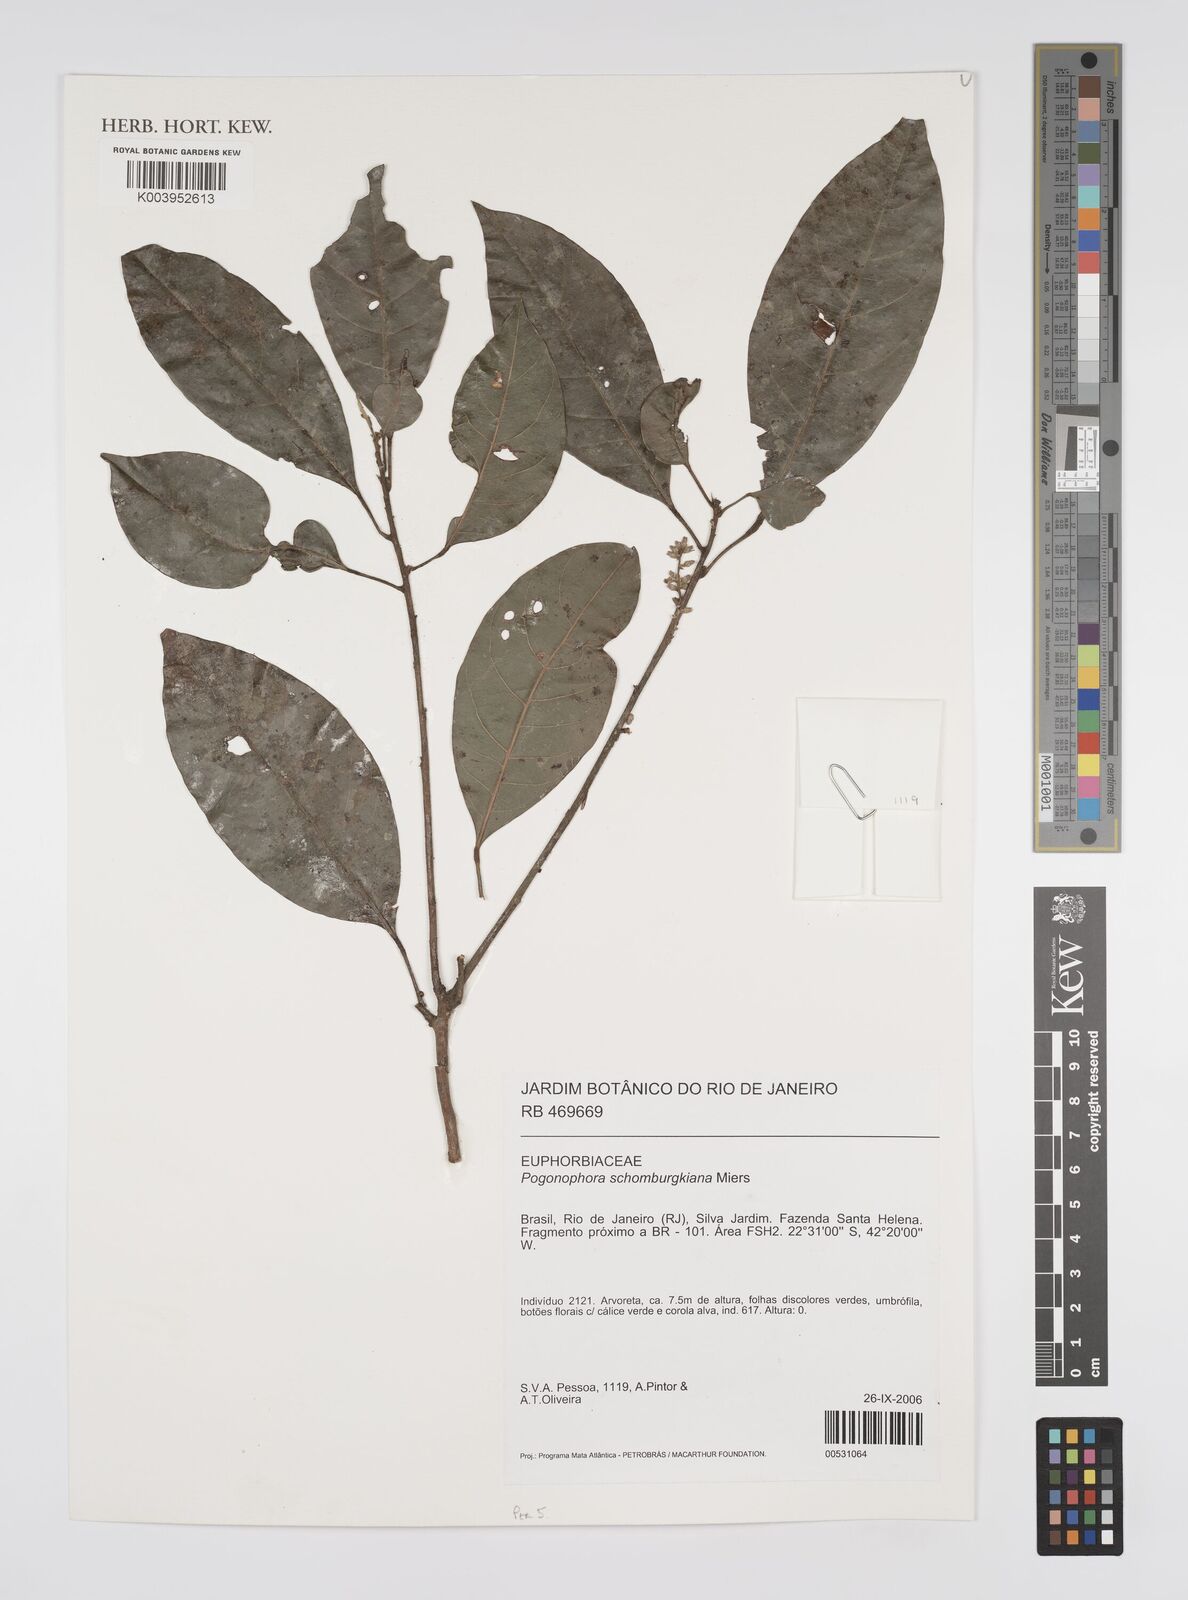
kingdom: Plantae
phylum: Tracheophyta
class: Magnoliopsida
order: Malpighiales
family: Peraceae
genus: Pogonophora
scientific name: Pogonophora schomburgkiana
